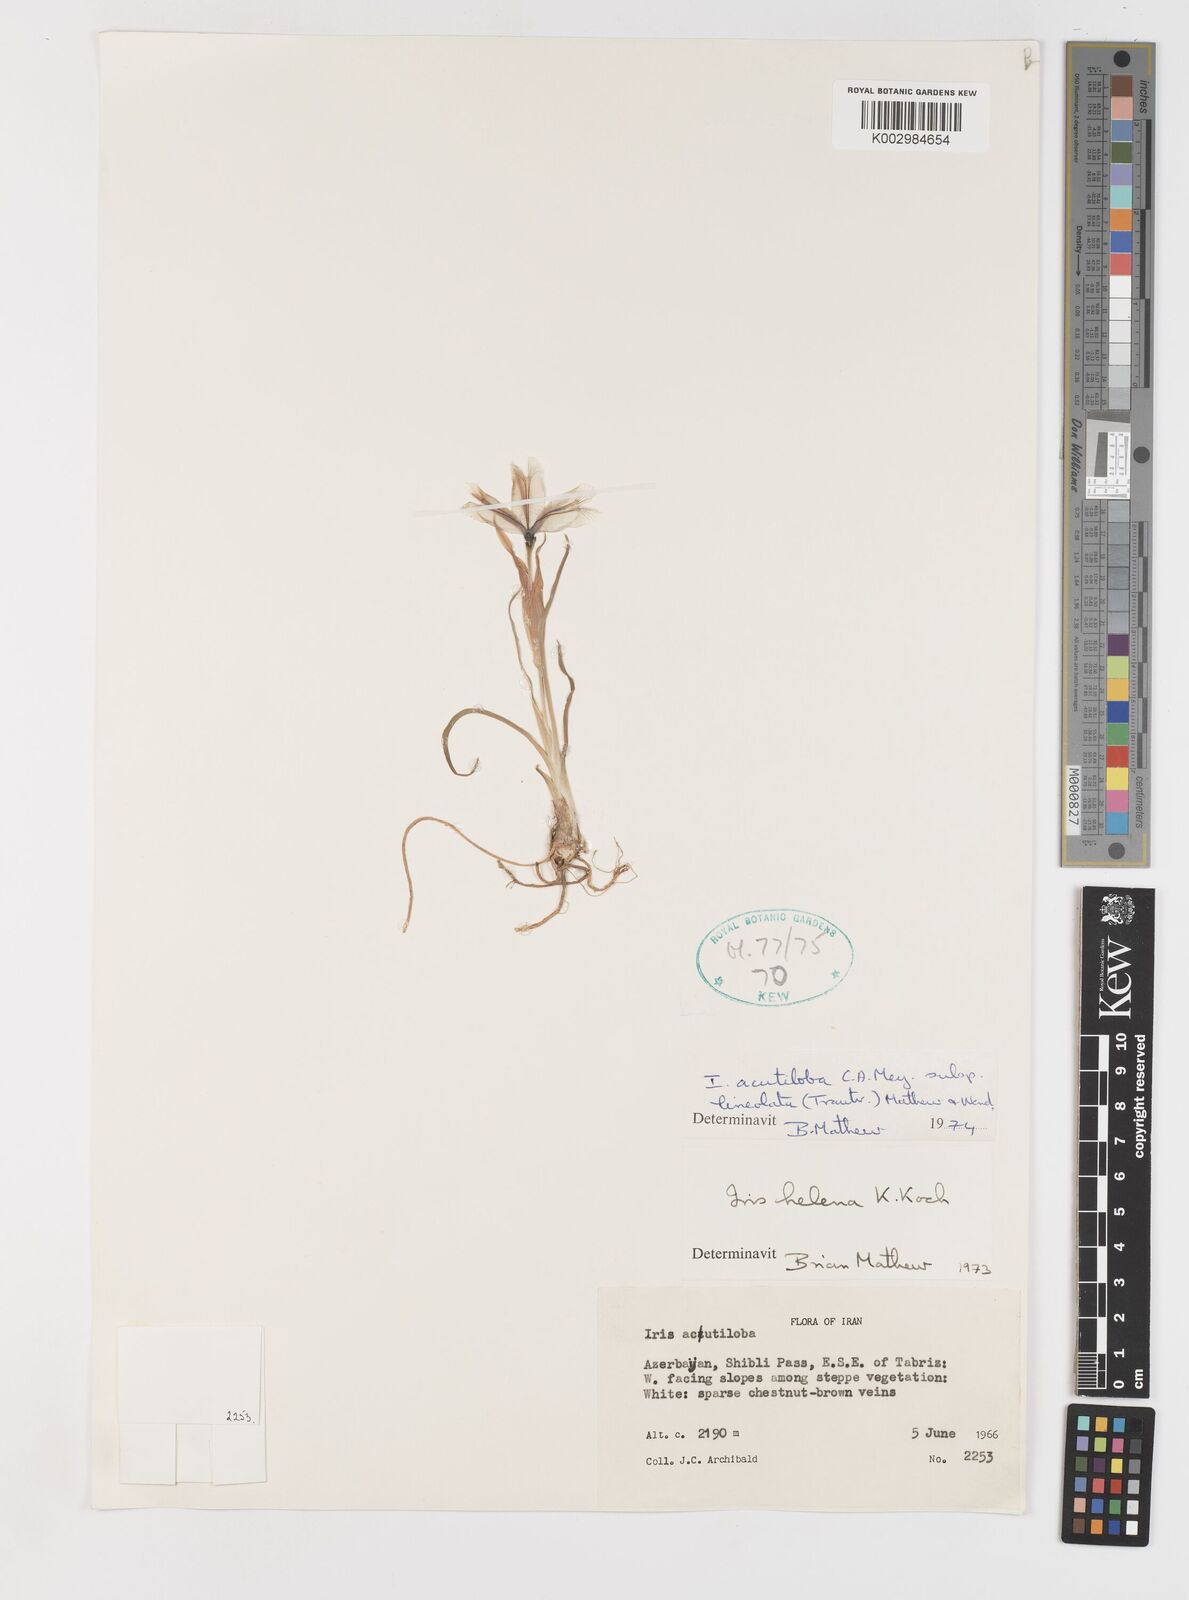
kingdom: Plantae
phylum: Tracheophyta
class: Liliopsida
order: Asparagales
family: Iridaceae
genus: Iris
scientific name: Iris acutiloba
